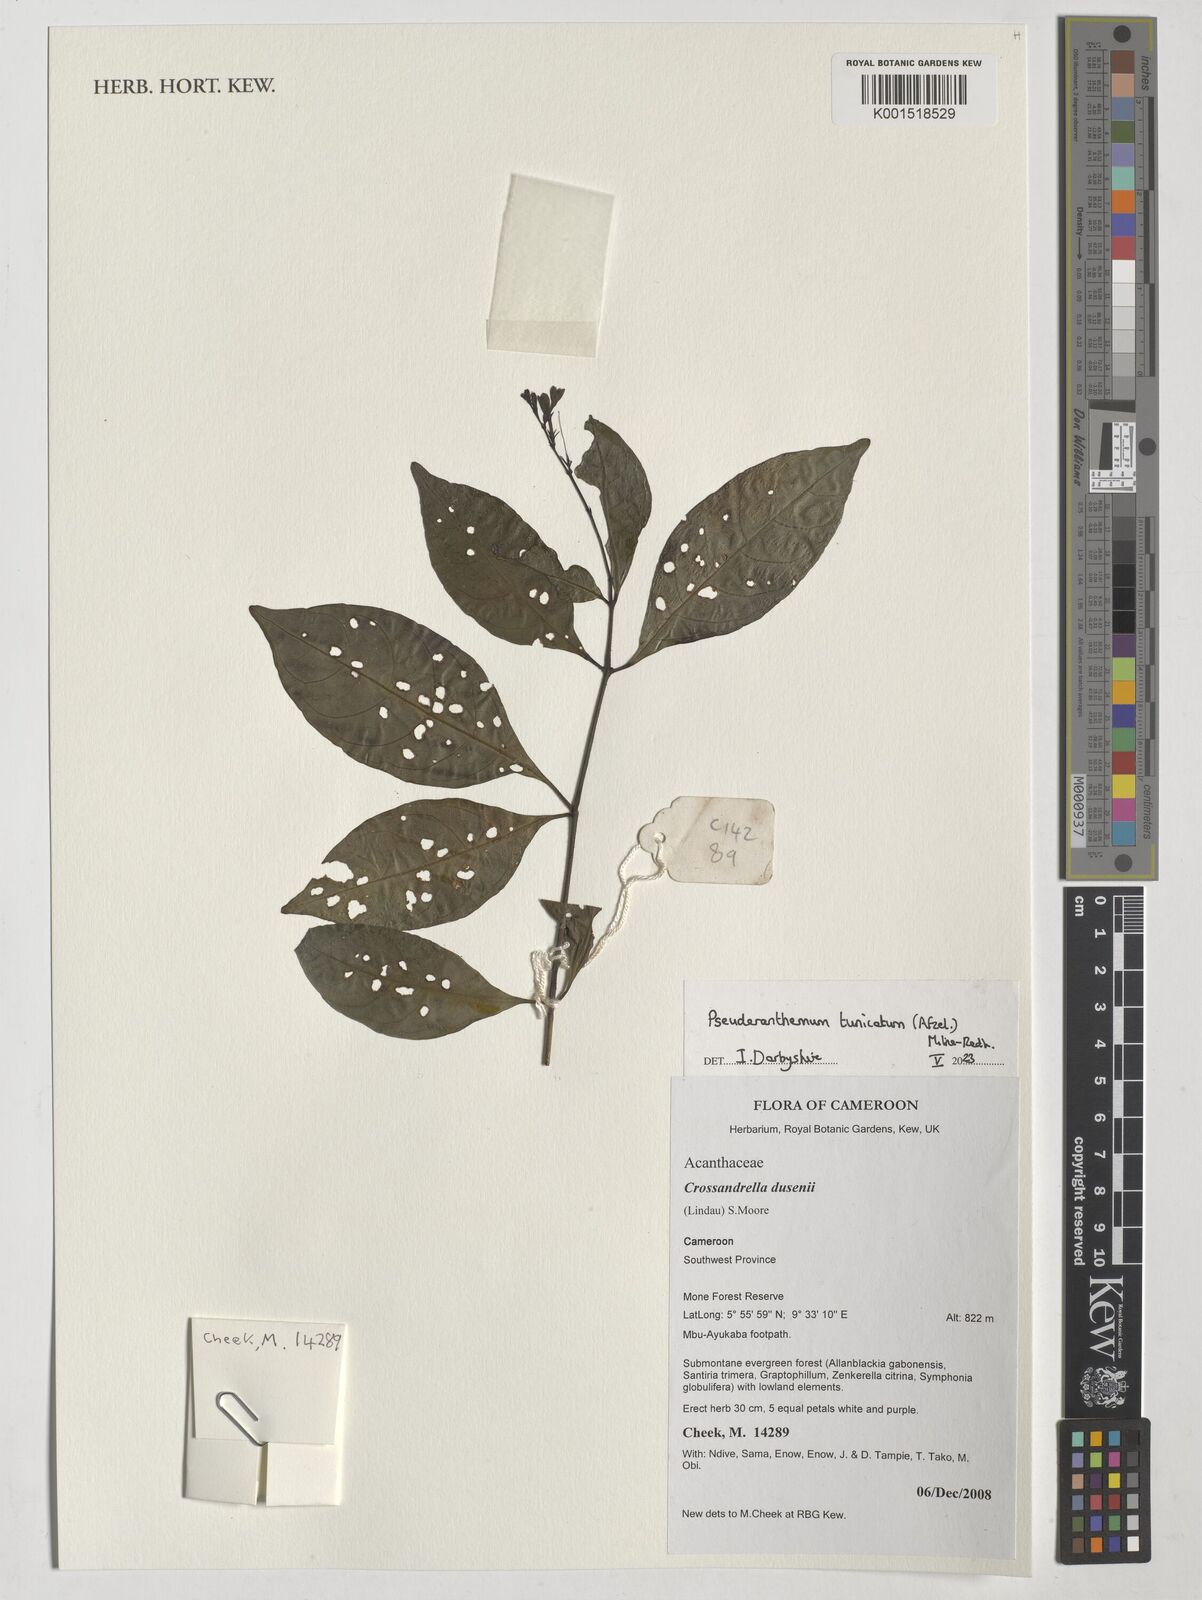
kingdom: Plantae
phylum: Tracheophyta
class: Magnoliopsida
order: Lamiales
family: Acanthaceae
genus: Pseuderanthemum
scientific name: Pseuderanthemum tunicatum
